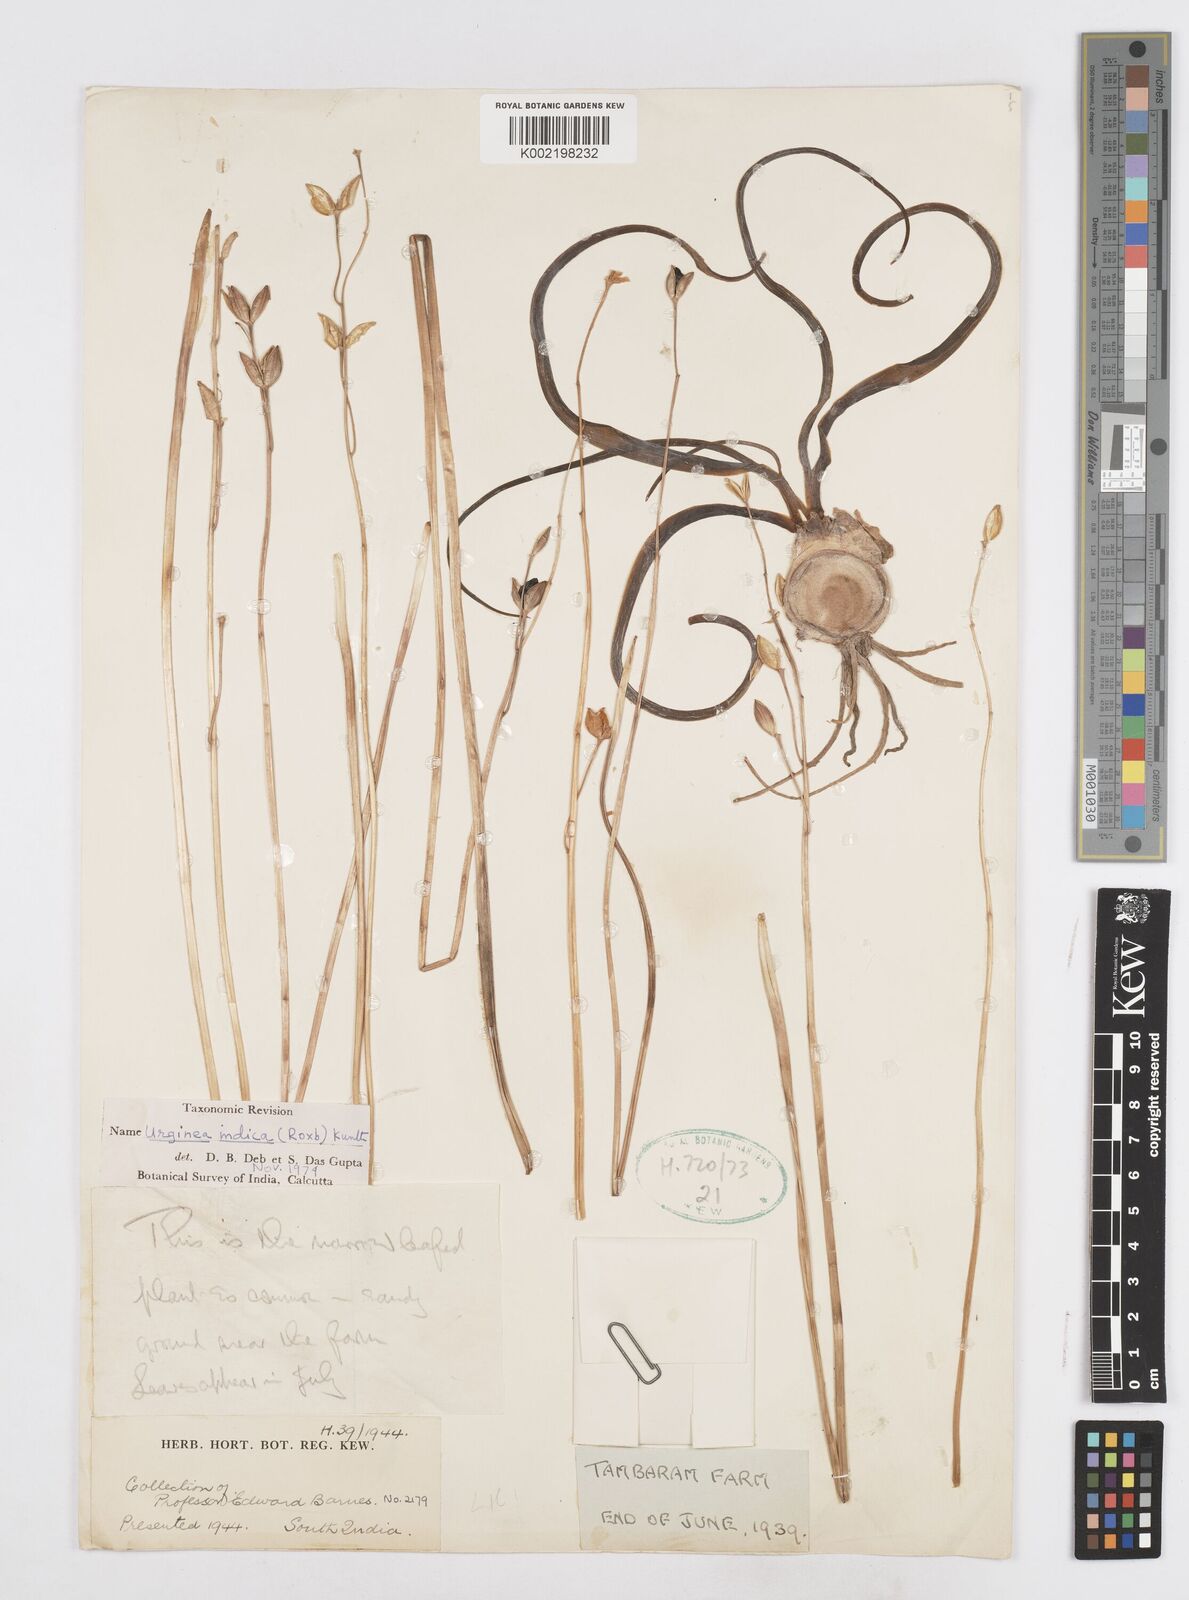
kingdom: Plantae
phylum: Tracheophyta
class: Liliopsida
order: Asparagales
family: Asparagaceae
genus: Drimia
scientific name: Drimia indica
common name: Indian-squill
